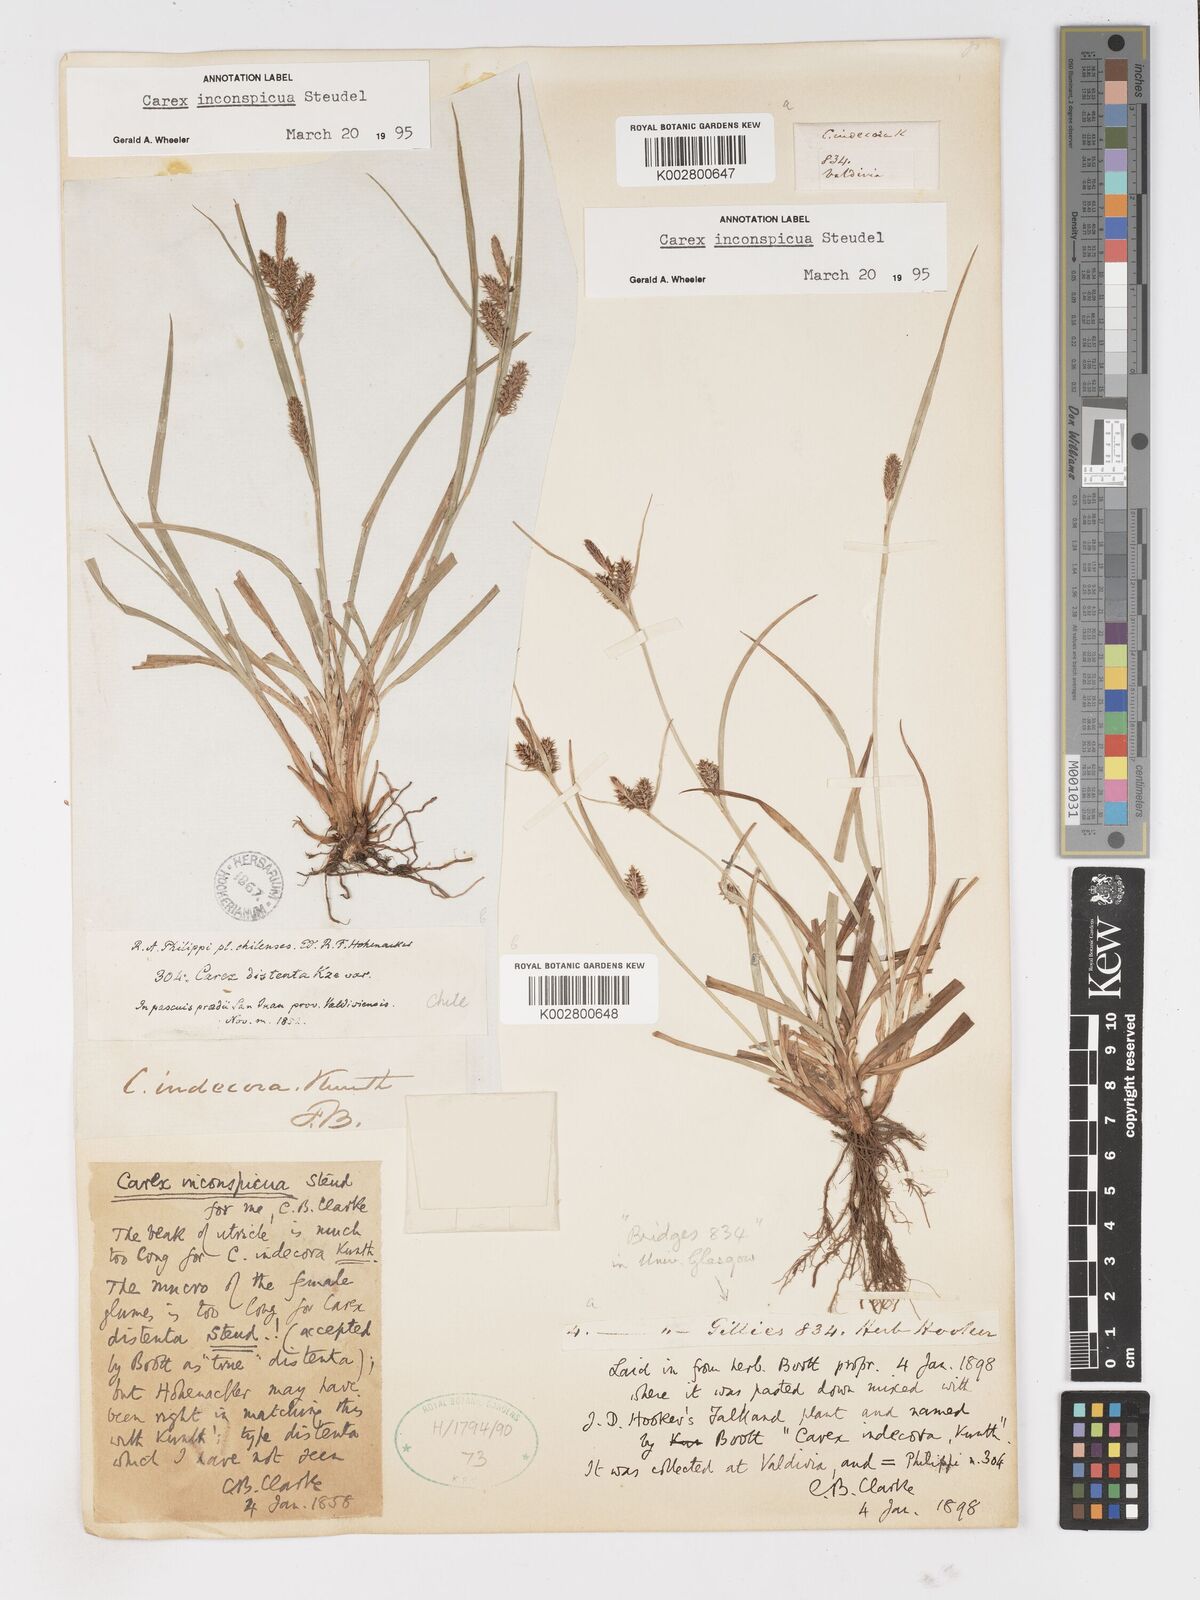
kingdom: Plantae
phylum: Tracheophyta
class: Liliopsida
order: Poales
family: Cyperaceae
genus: Carex
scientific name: Carex fuscula
